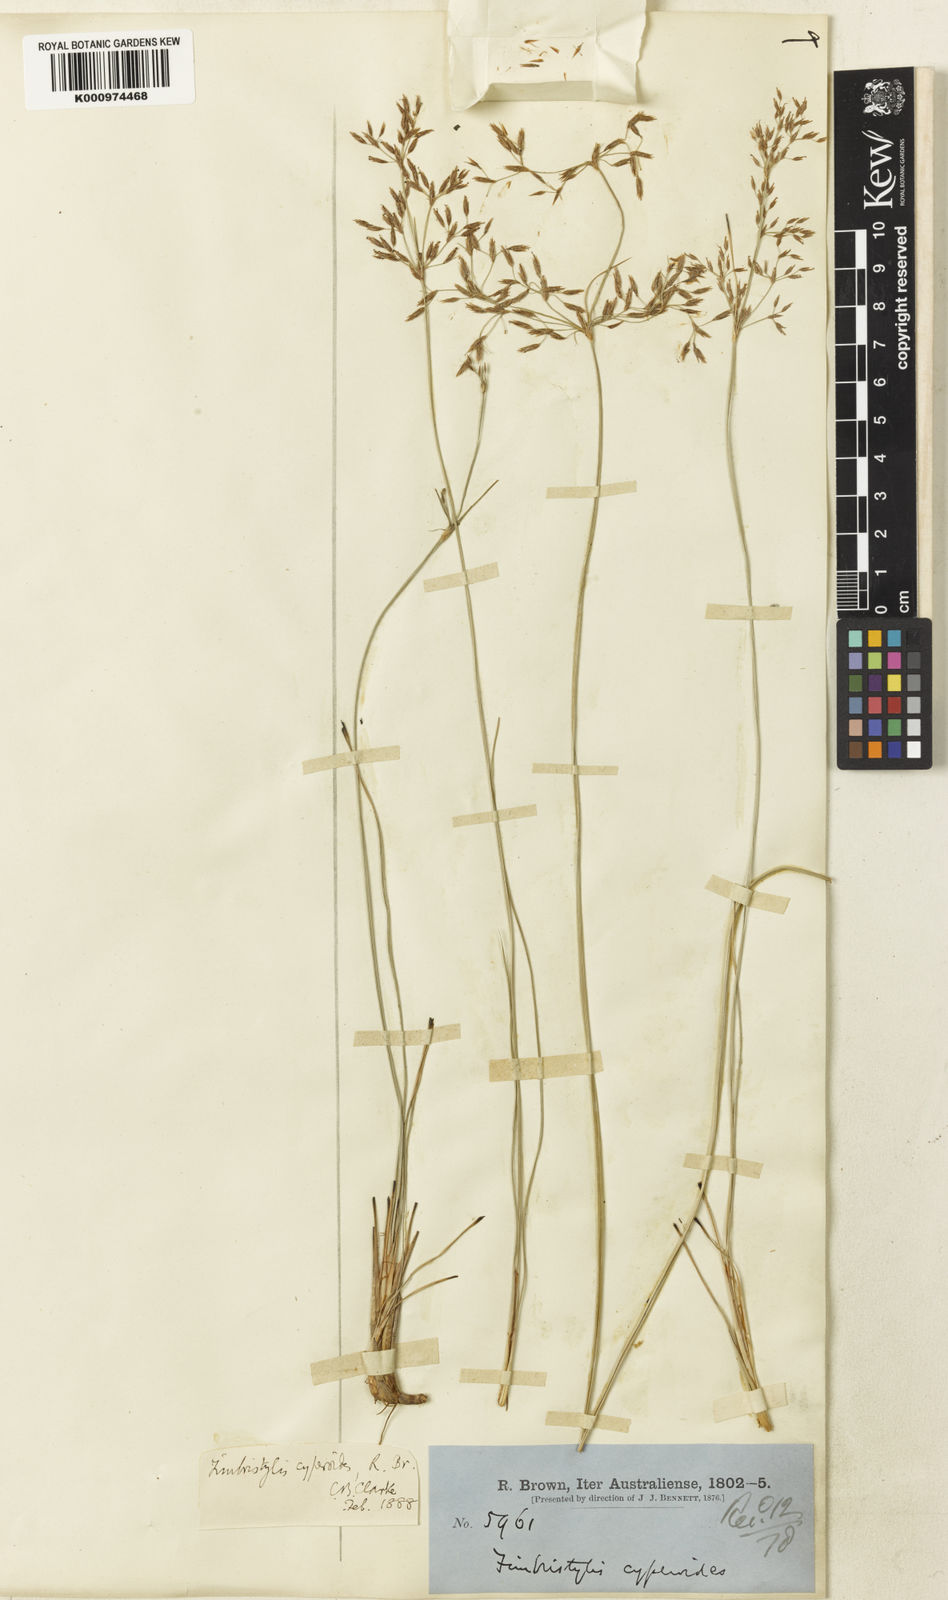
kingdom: Plantae
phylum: Tracheophyta
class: Liliopsida
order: Poales
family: Cyperaceae
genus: Fimbristylis
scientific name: Fimbristylis cinnamometorum
